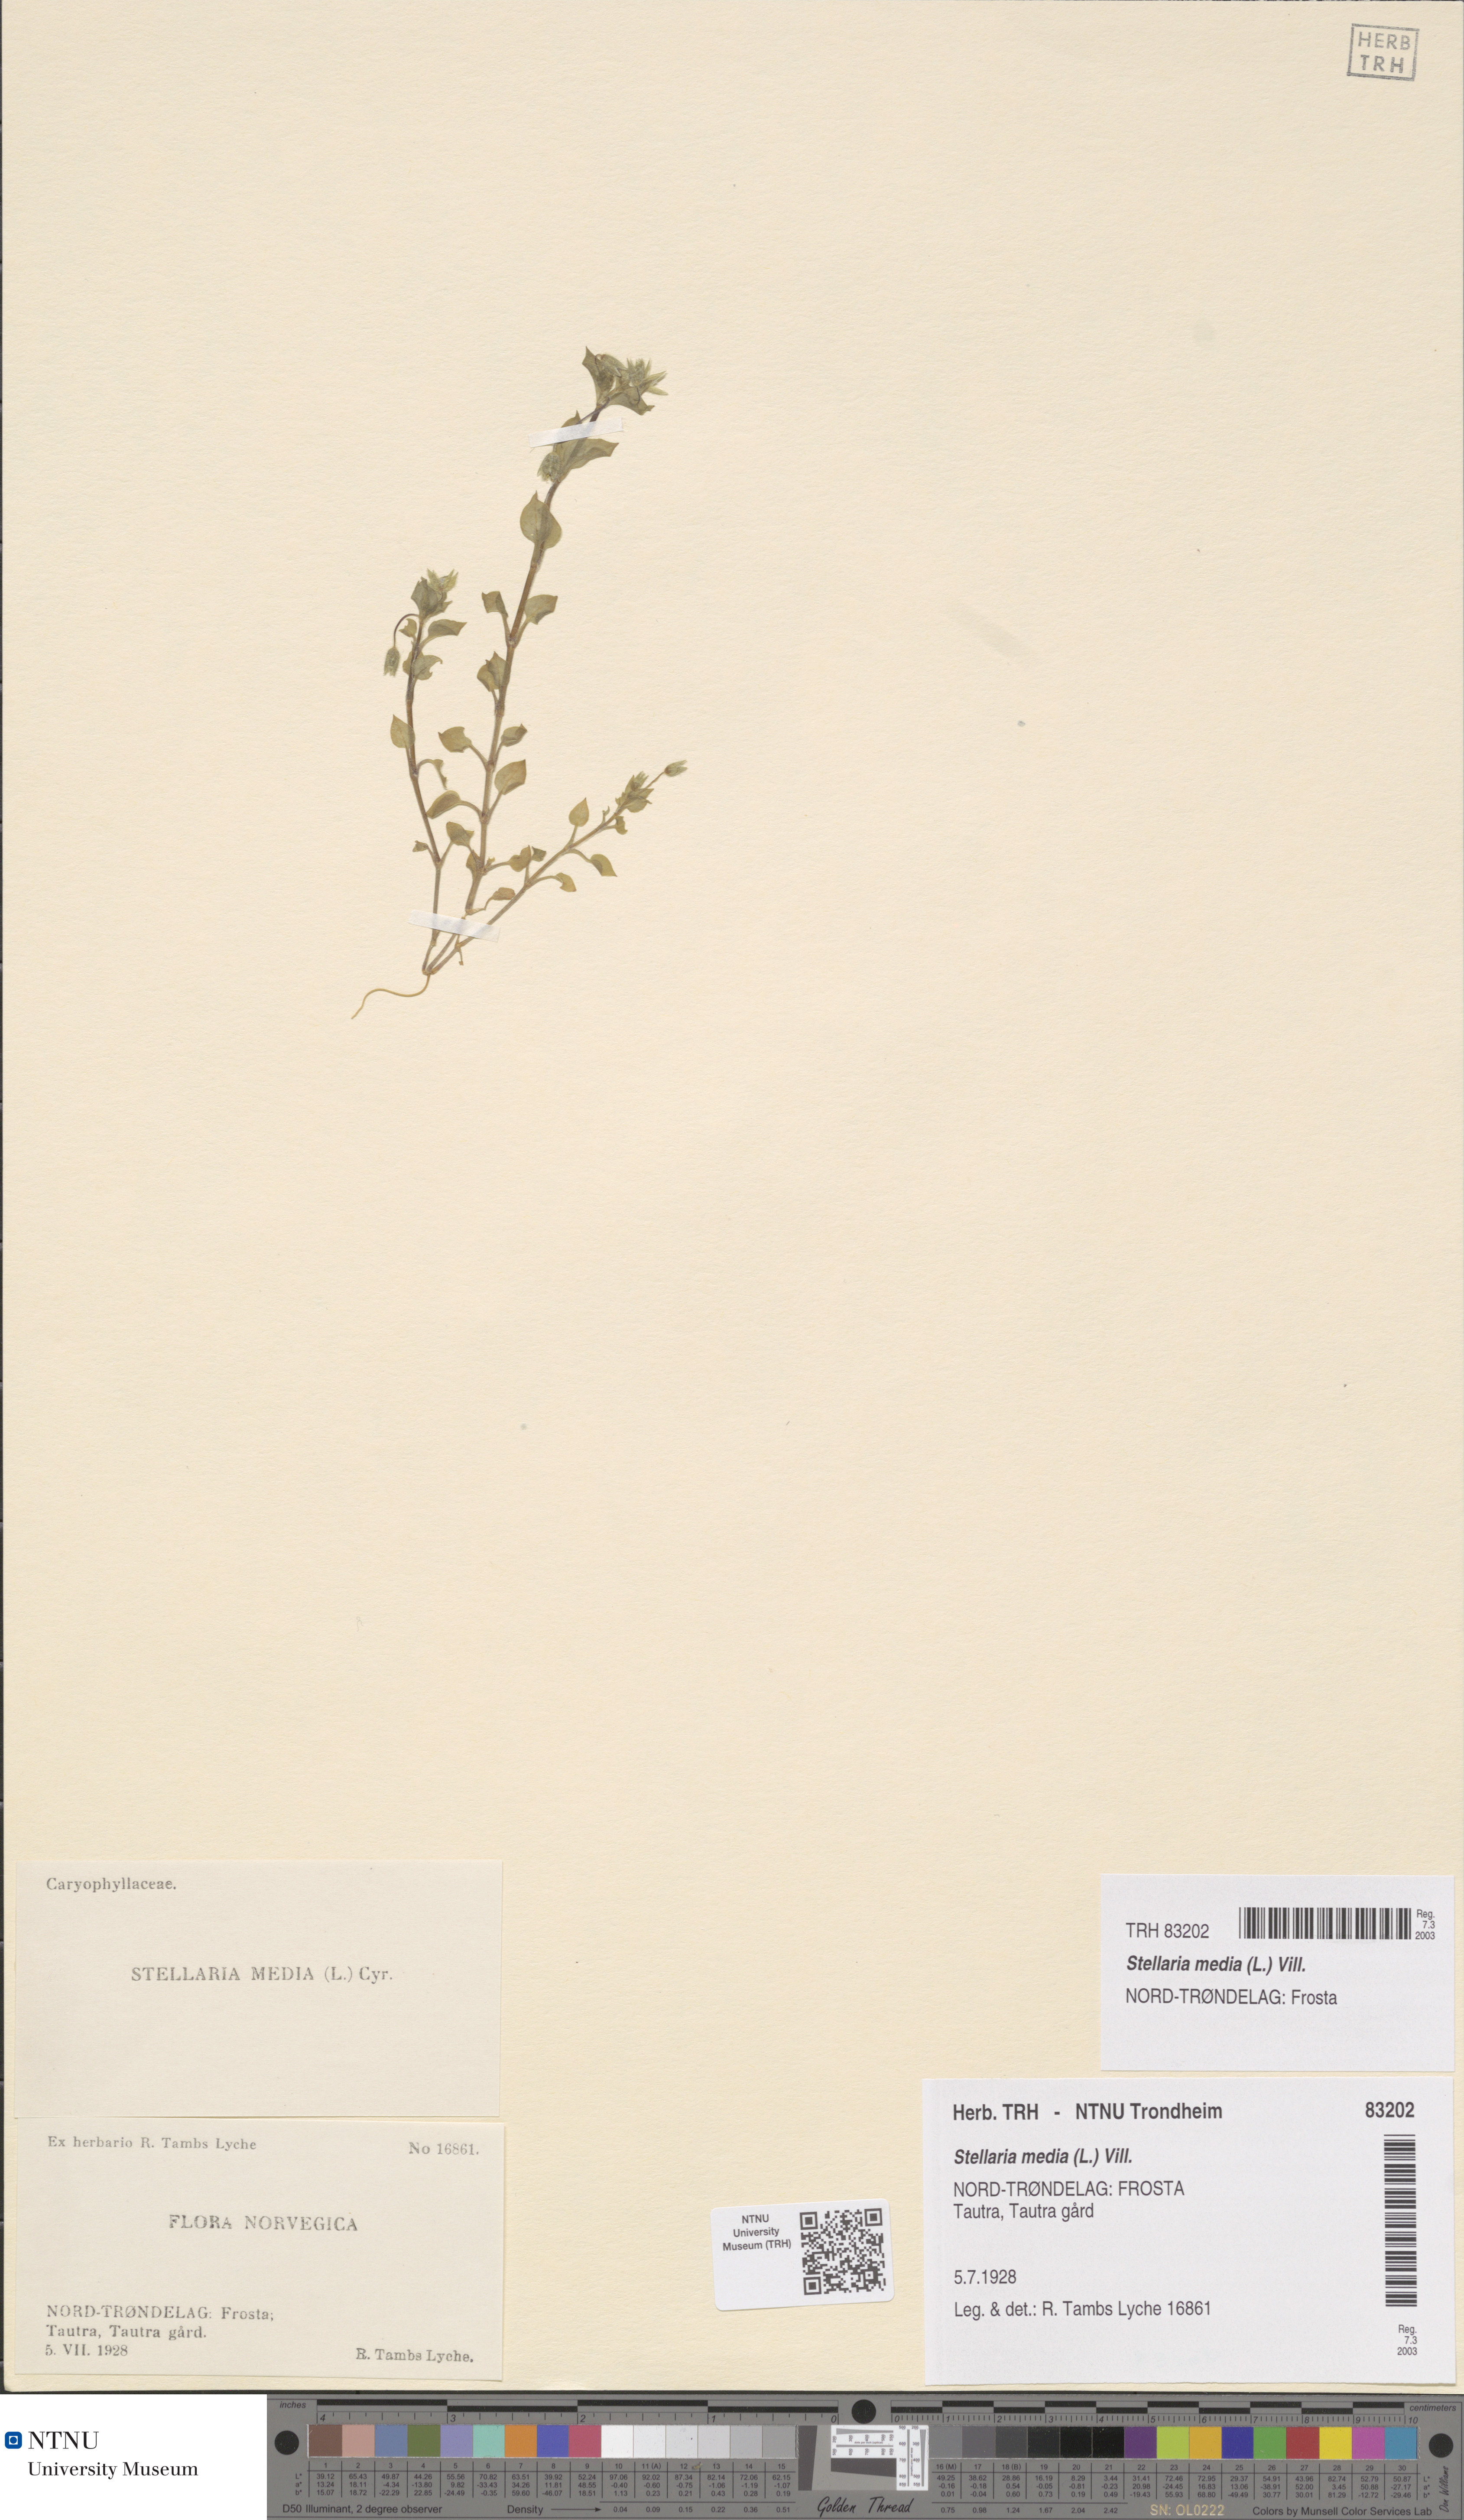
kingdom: Plantae
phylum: Tracheophyta
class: Magnoliopsida
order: Caryophyllales
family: Caryophyllaceae
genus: Stellaria
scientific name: Stellaria media
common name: Common chickweed
